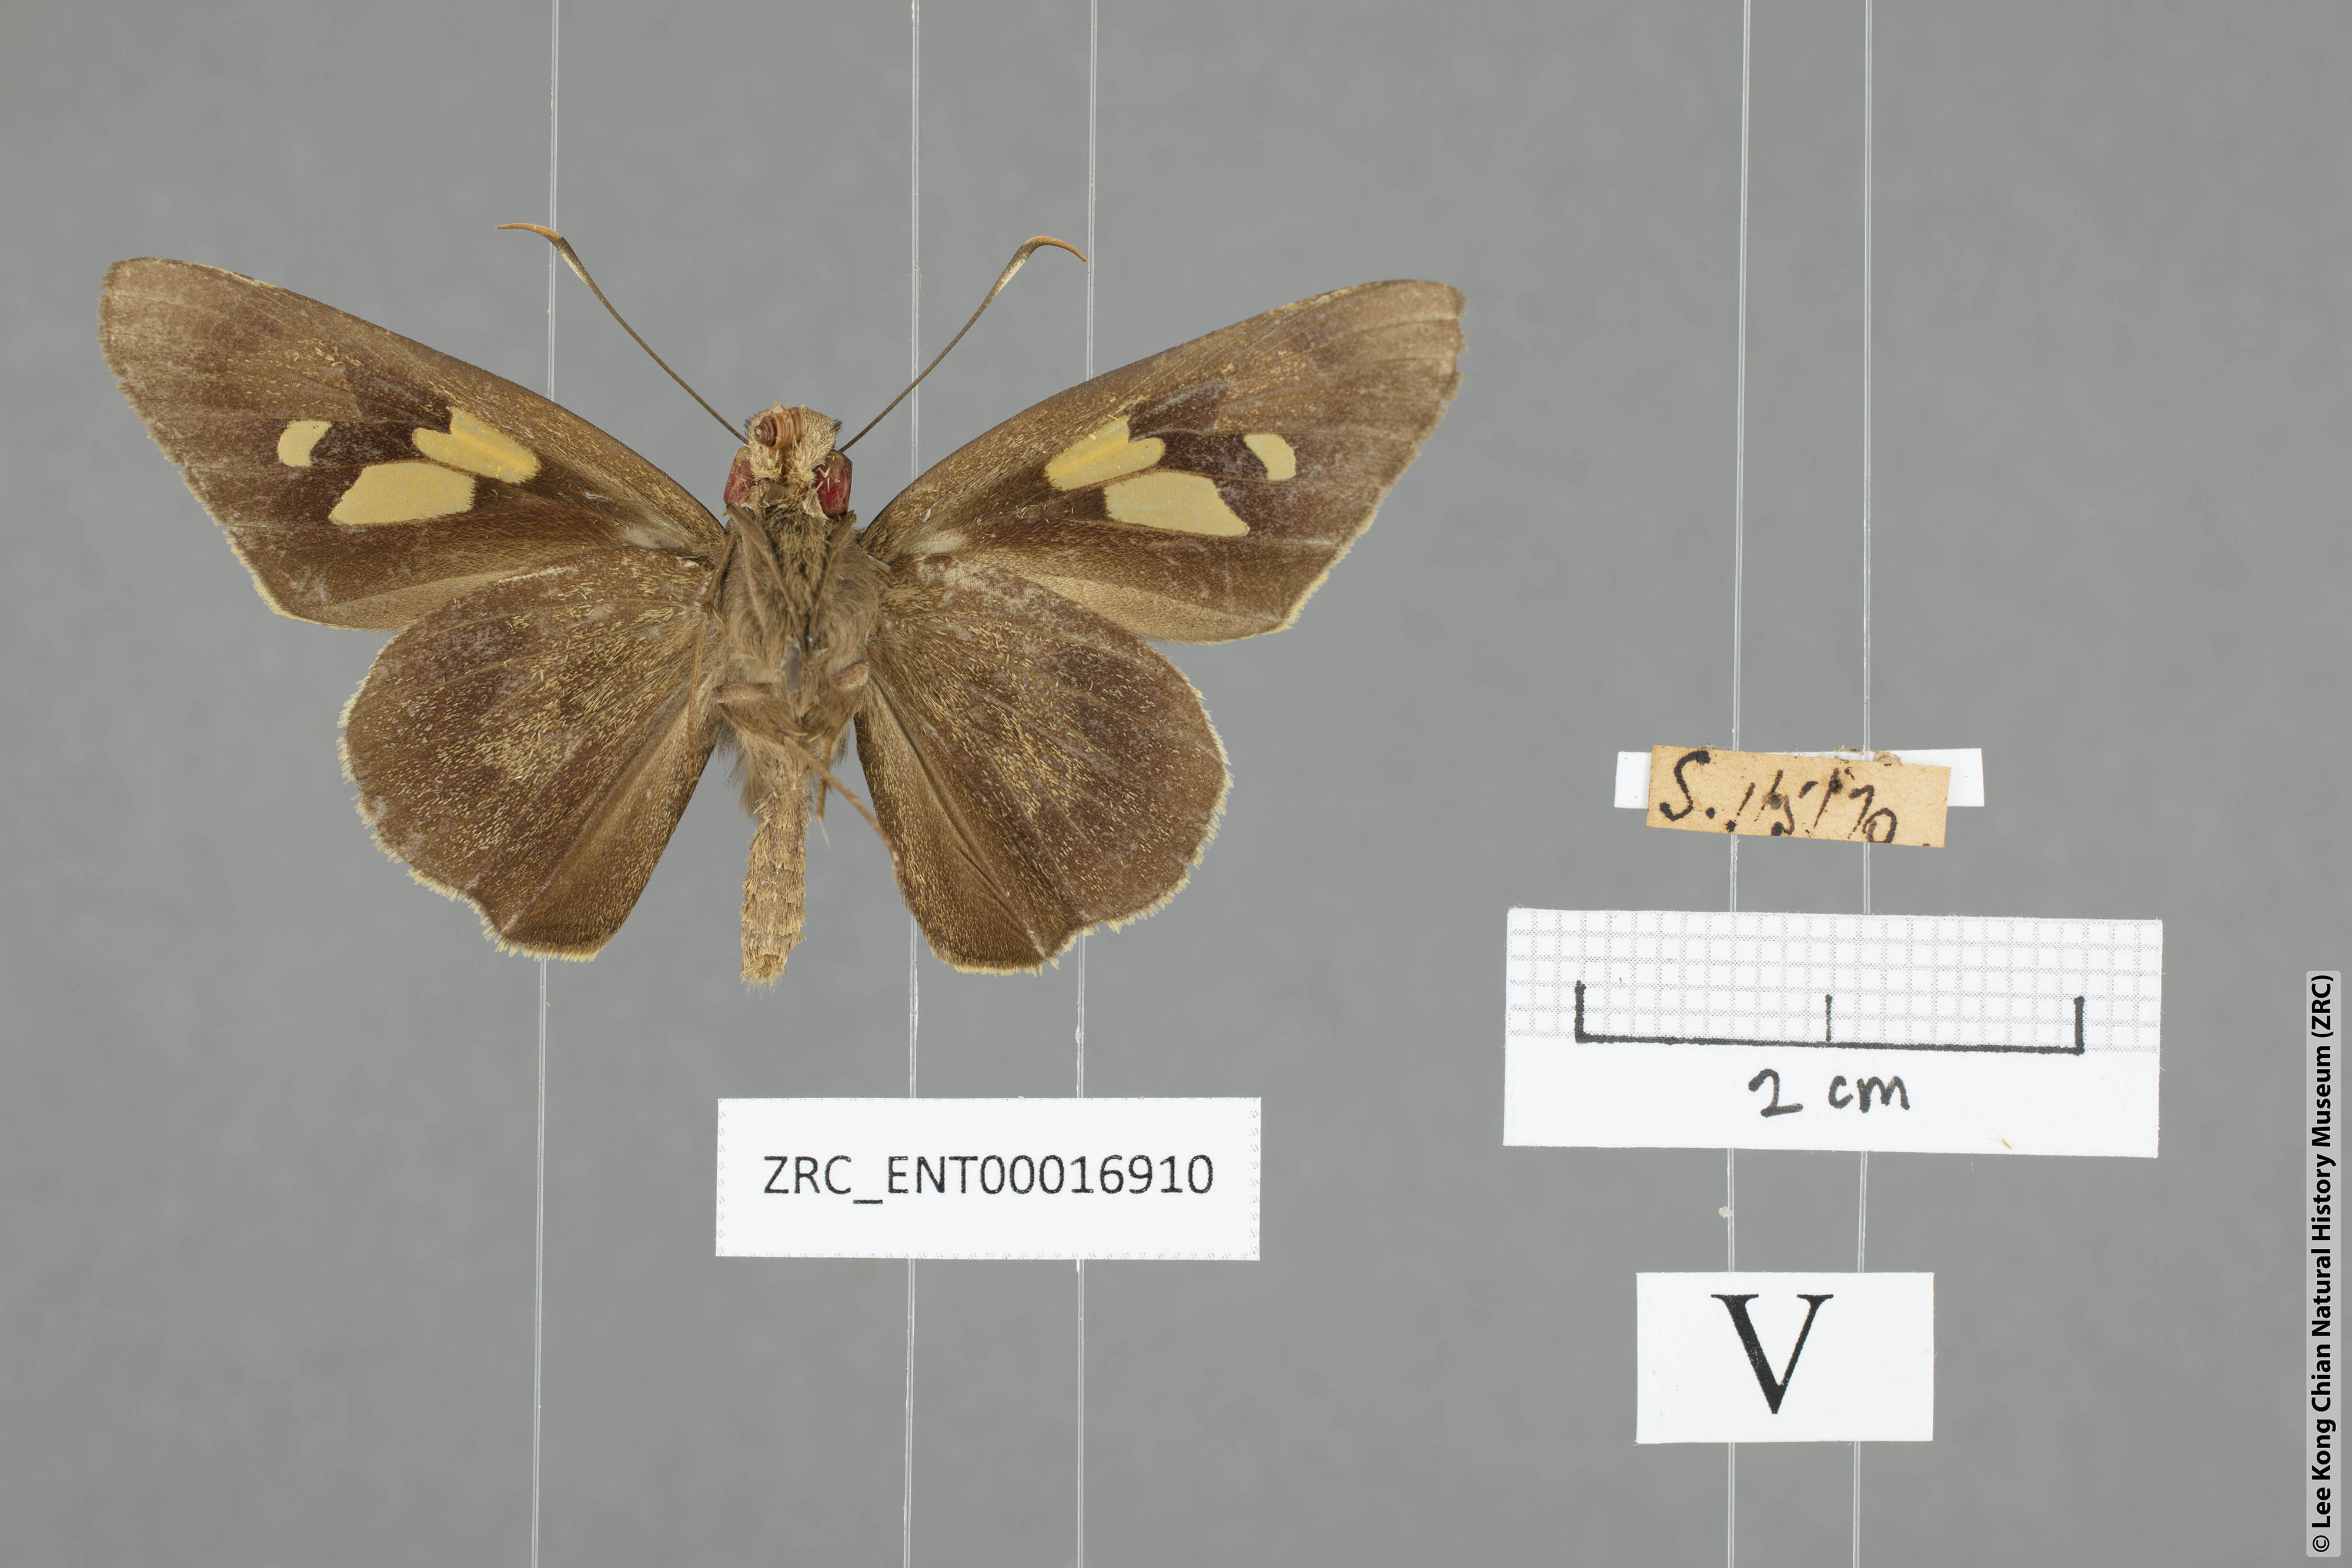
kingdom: Animalia
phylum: Arthropoda
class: Insecta
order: Lepidoptera
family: Hesperiidae
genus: Erionota
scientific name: Erionota
